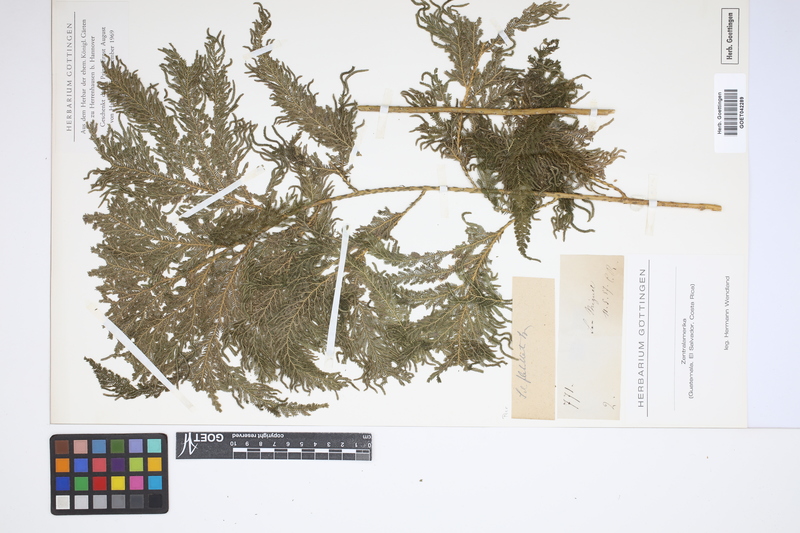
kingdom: Plantae
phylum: Tracheophyta
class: Lycopodiopsida
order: Selaginellales
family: Selaginellaceae
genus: Selaginella
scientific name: Selaginella flabellata
